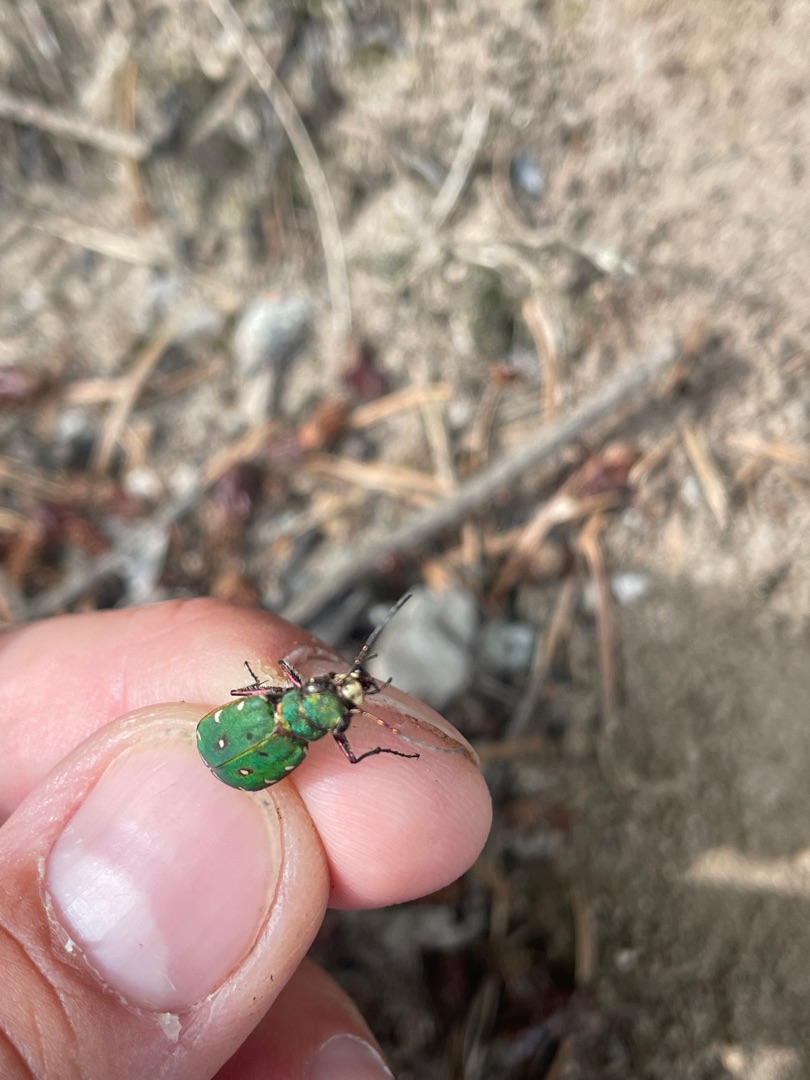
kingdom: Animalia
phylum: Arthropoda
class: Insecta
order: Coleoptera
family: Carabidae
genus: Cicindela
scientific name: Cicindela campestris
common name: Grøn sandspringer
